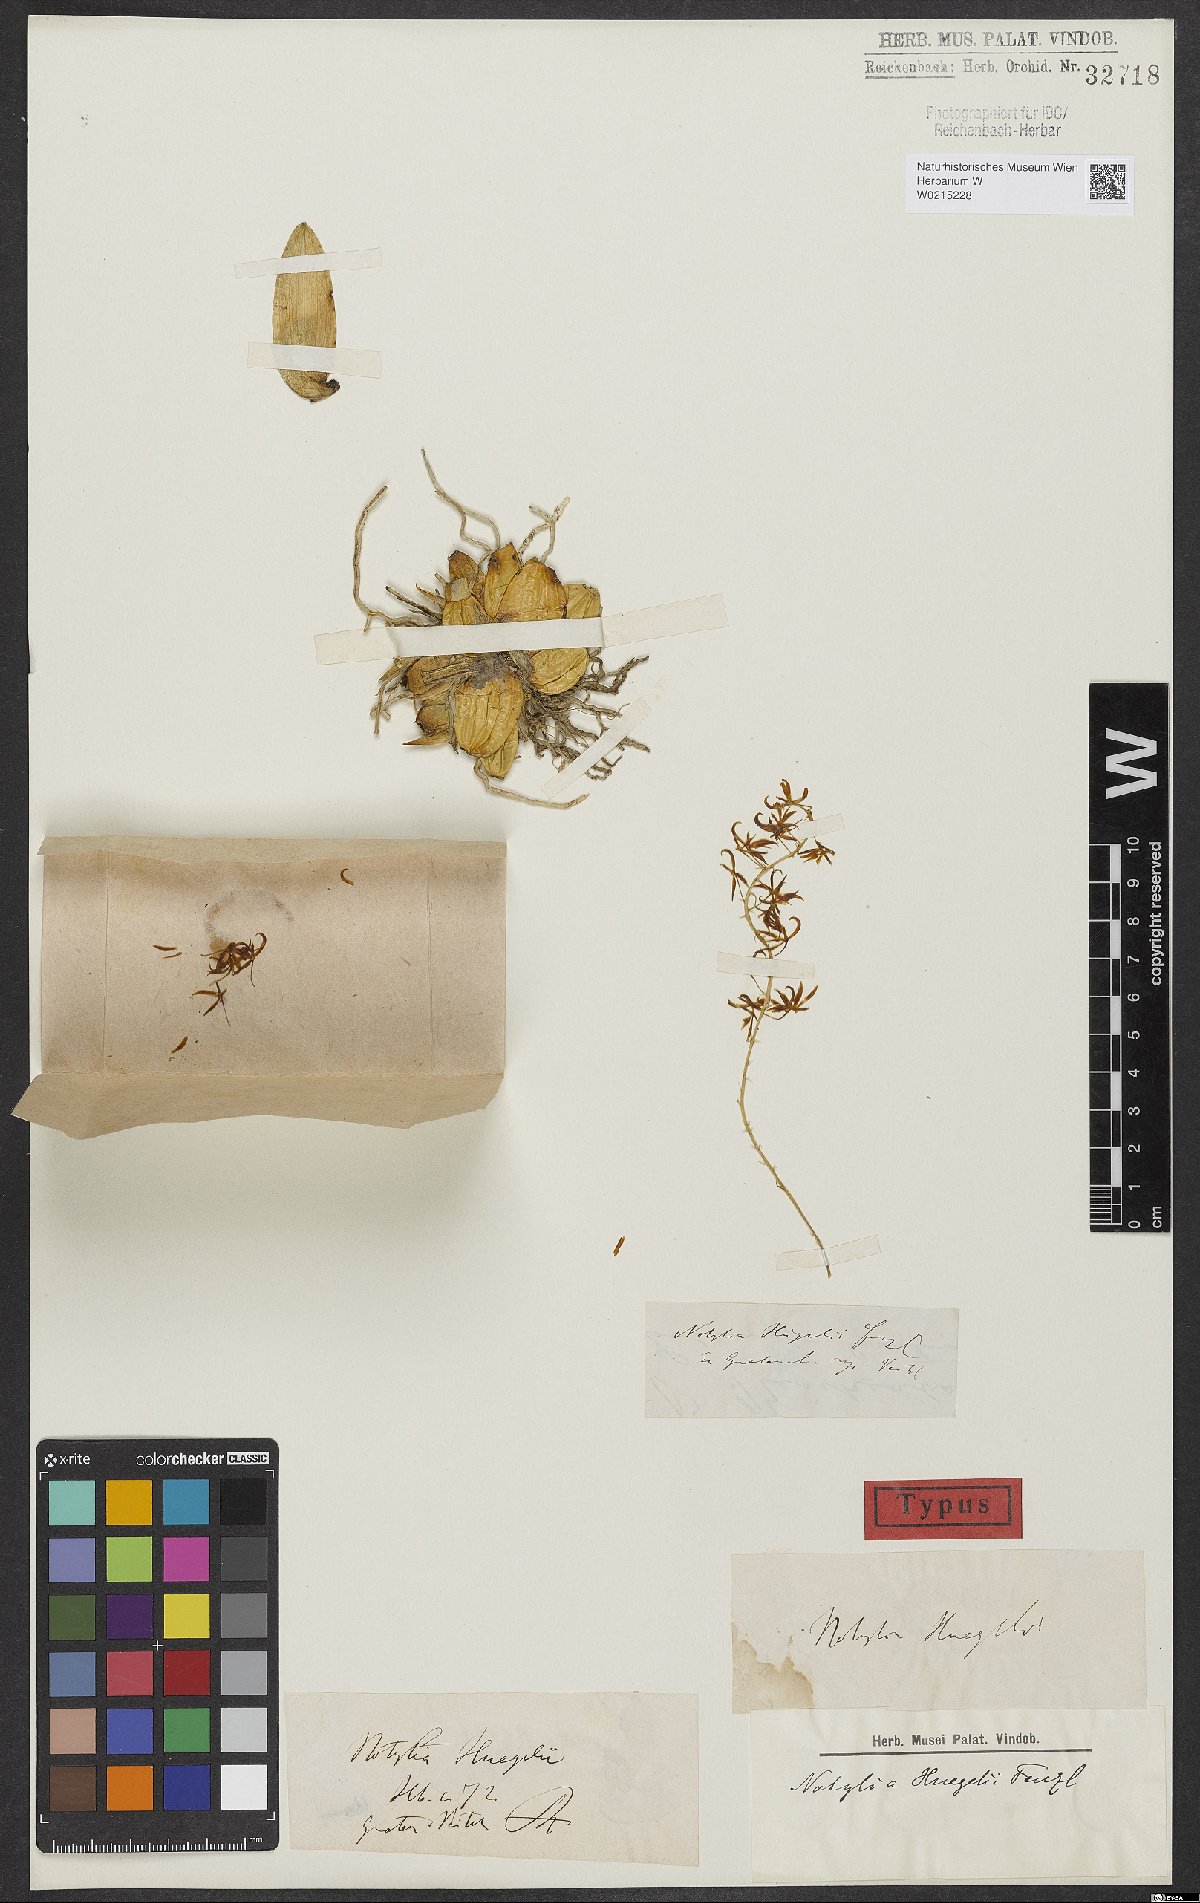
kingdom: Plantae
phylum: Tracheophyta
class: Liliopsida
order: Asparagales
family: Orchidaceae
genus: Notylia
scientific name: Notylia orbicularis
